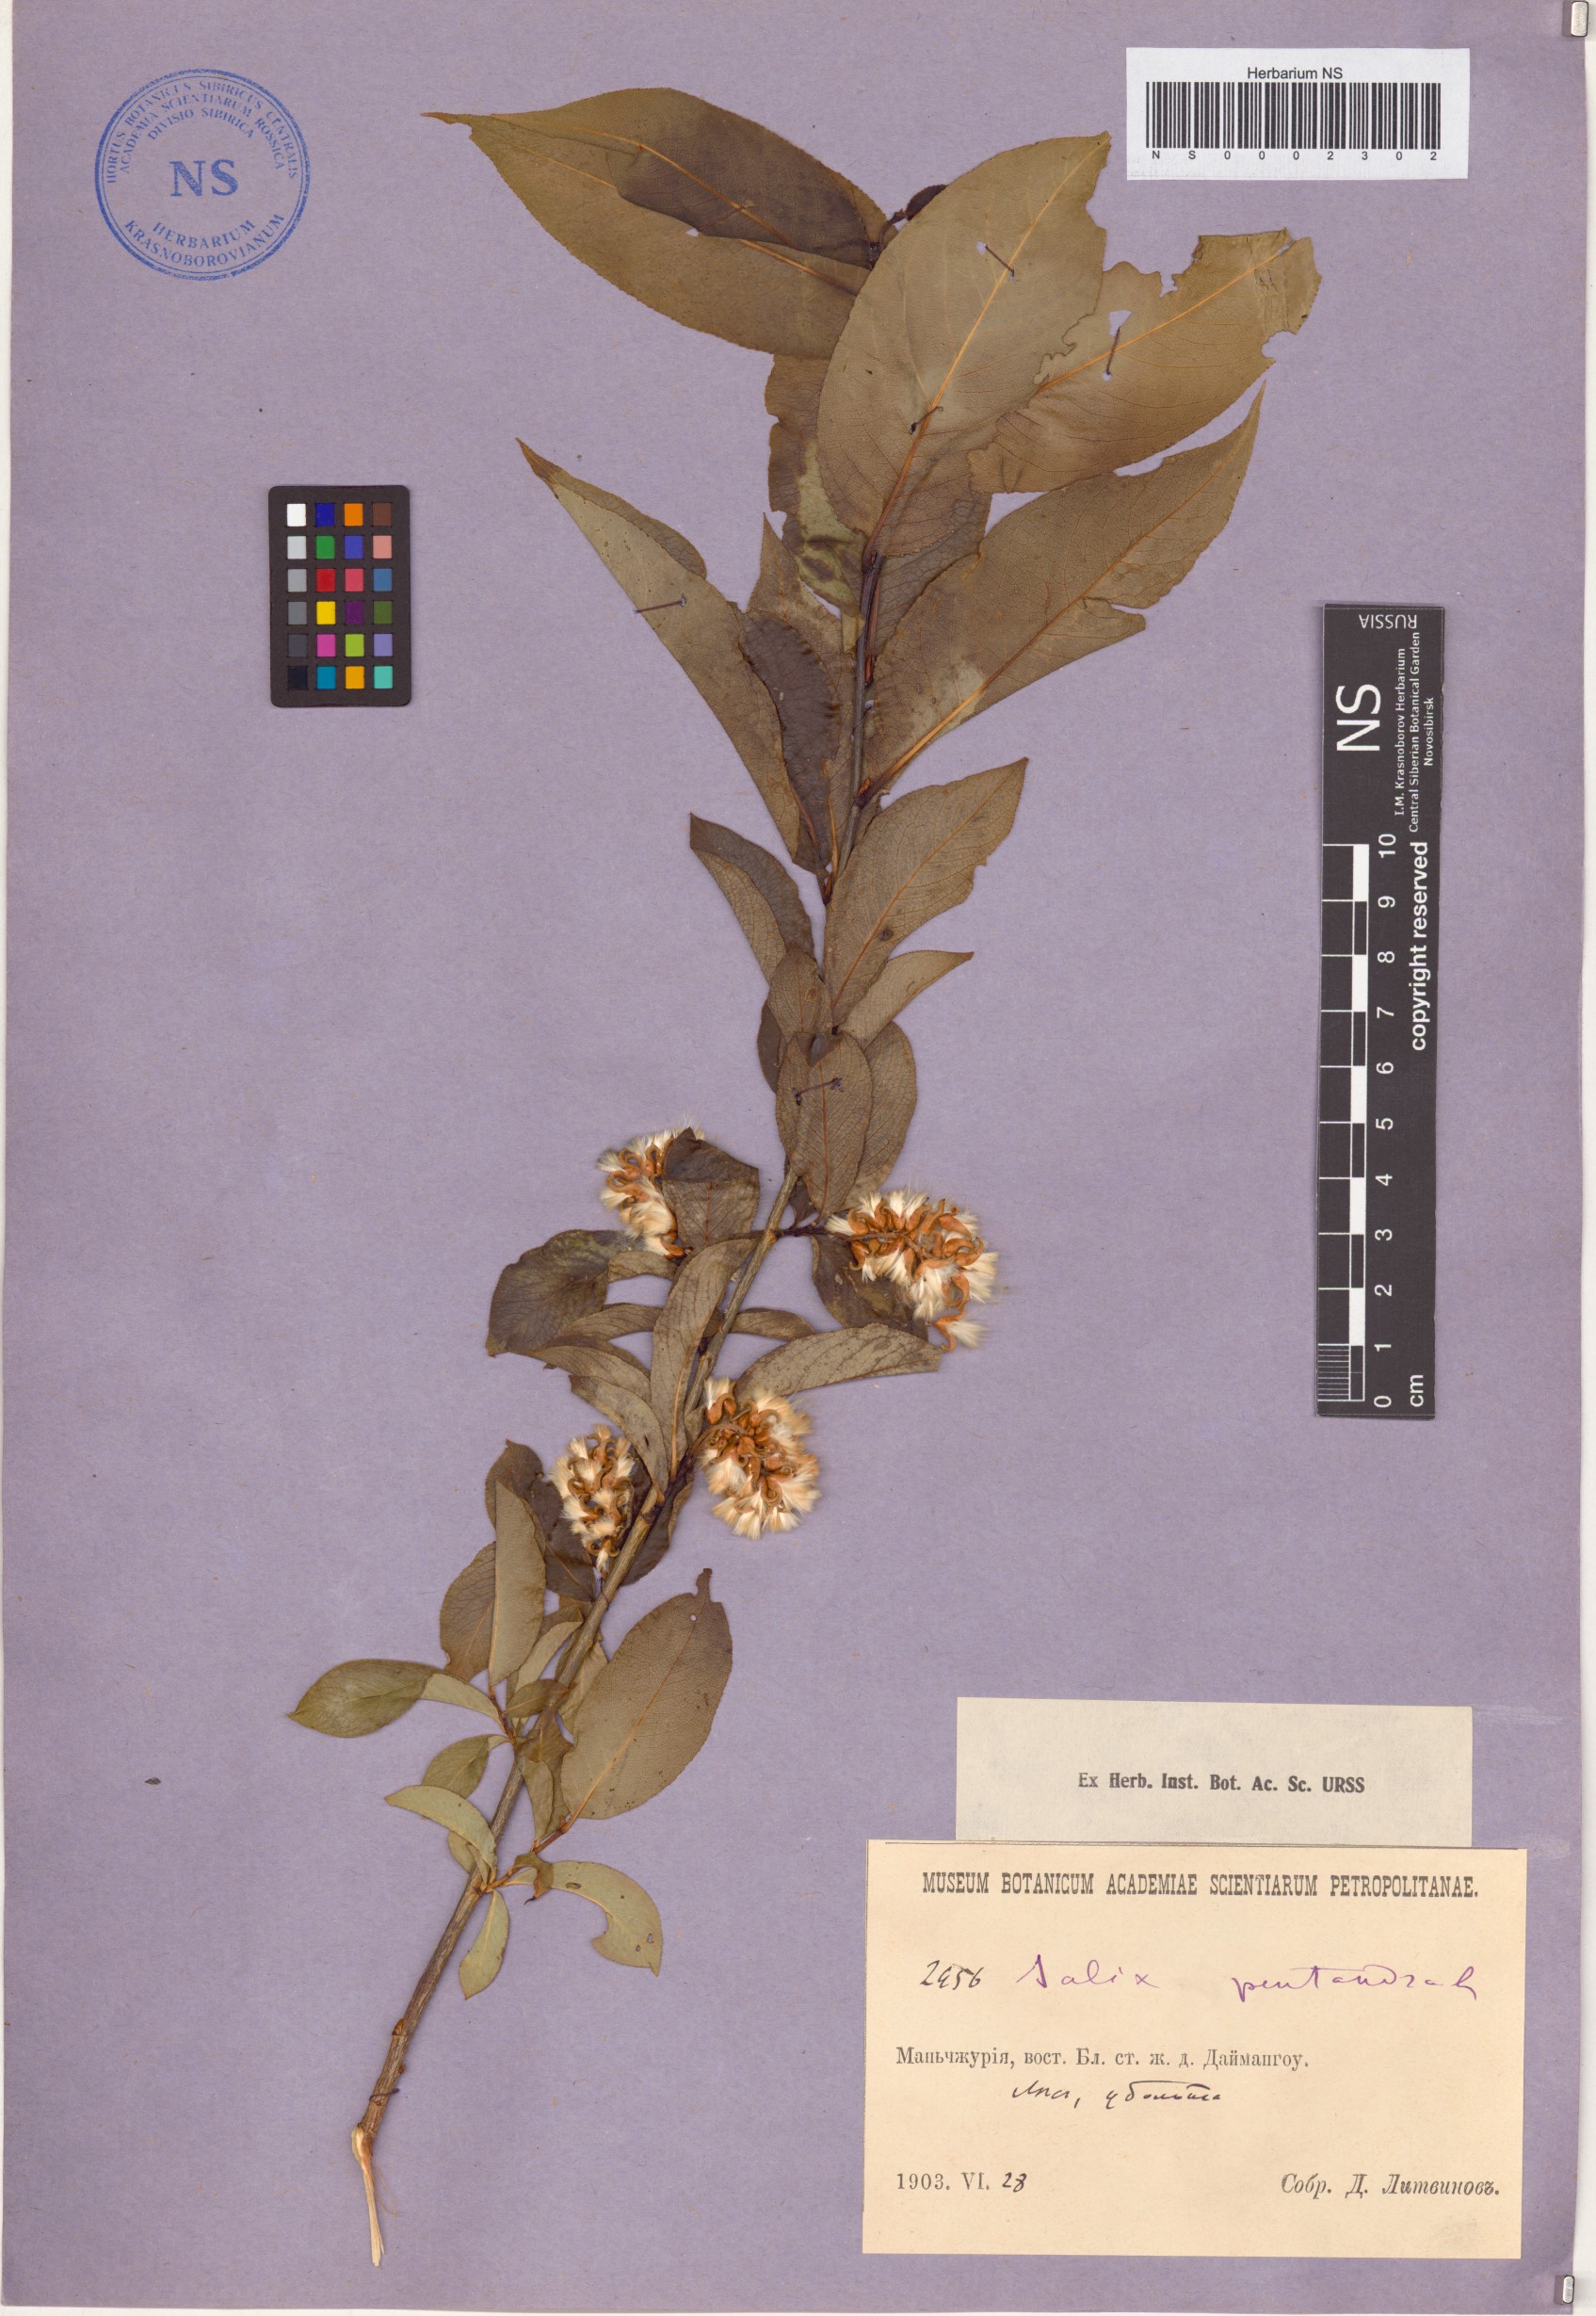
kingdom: Plantae
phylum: Tracheophyta
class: Magnoliopsida
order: Malpighiales
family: Salicaceae
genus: Salix
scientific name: Salix pseudopentandra
